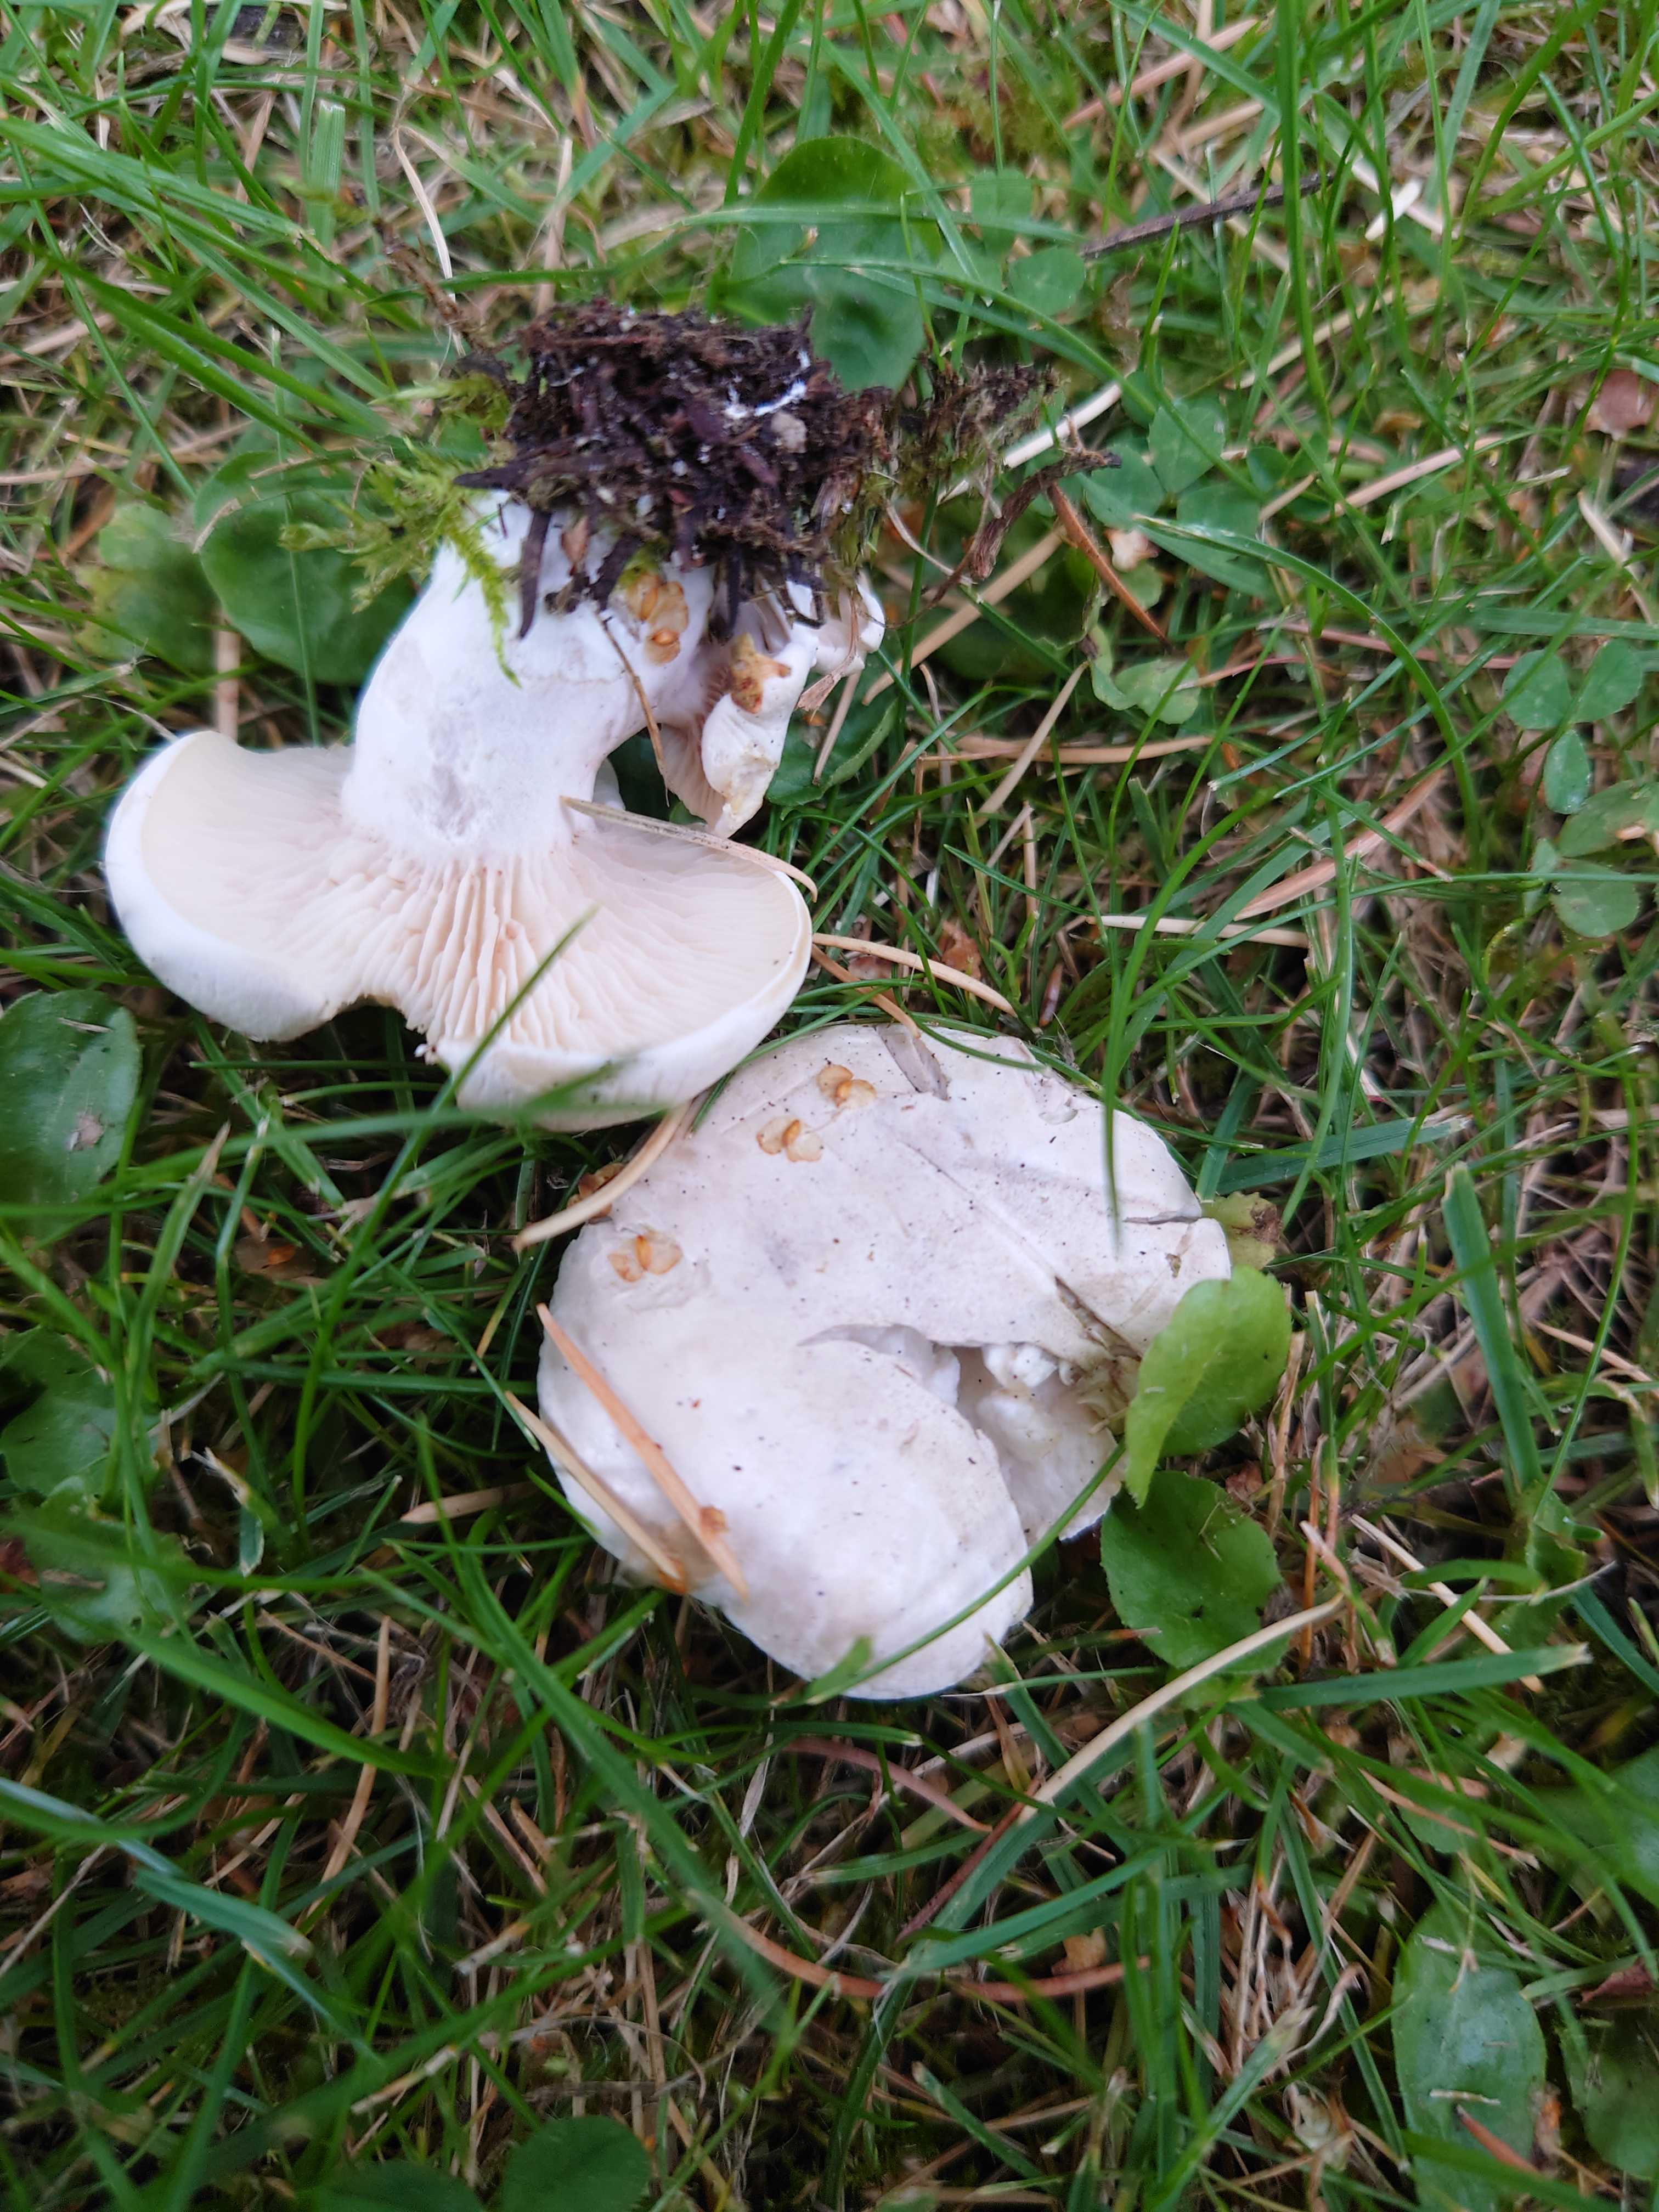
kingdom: Fungi
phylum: Basidiomycota
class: Agaricomycetes
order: Agaricales
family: Entolomataceae
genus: Clitopilus
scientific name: Clitopilus prunulus
